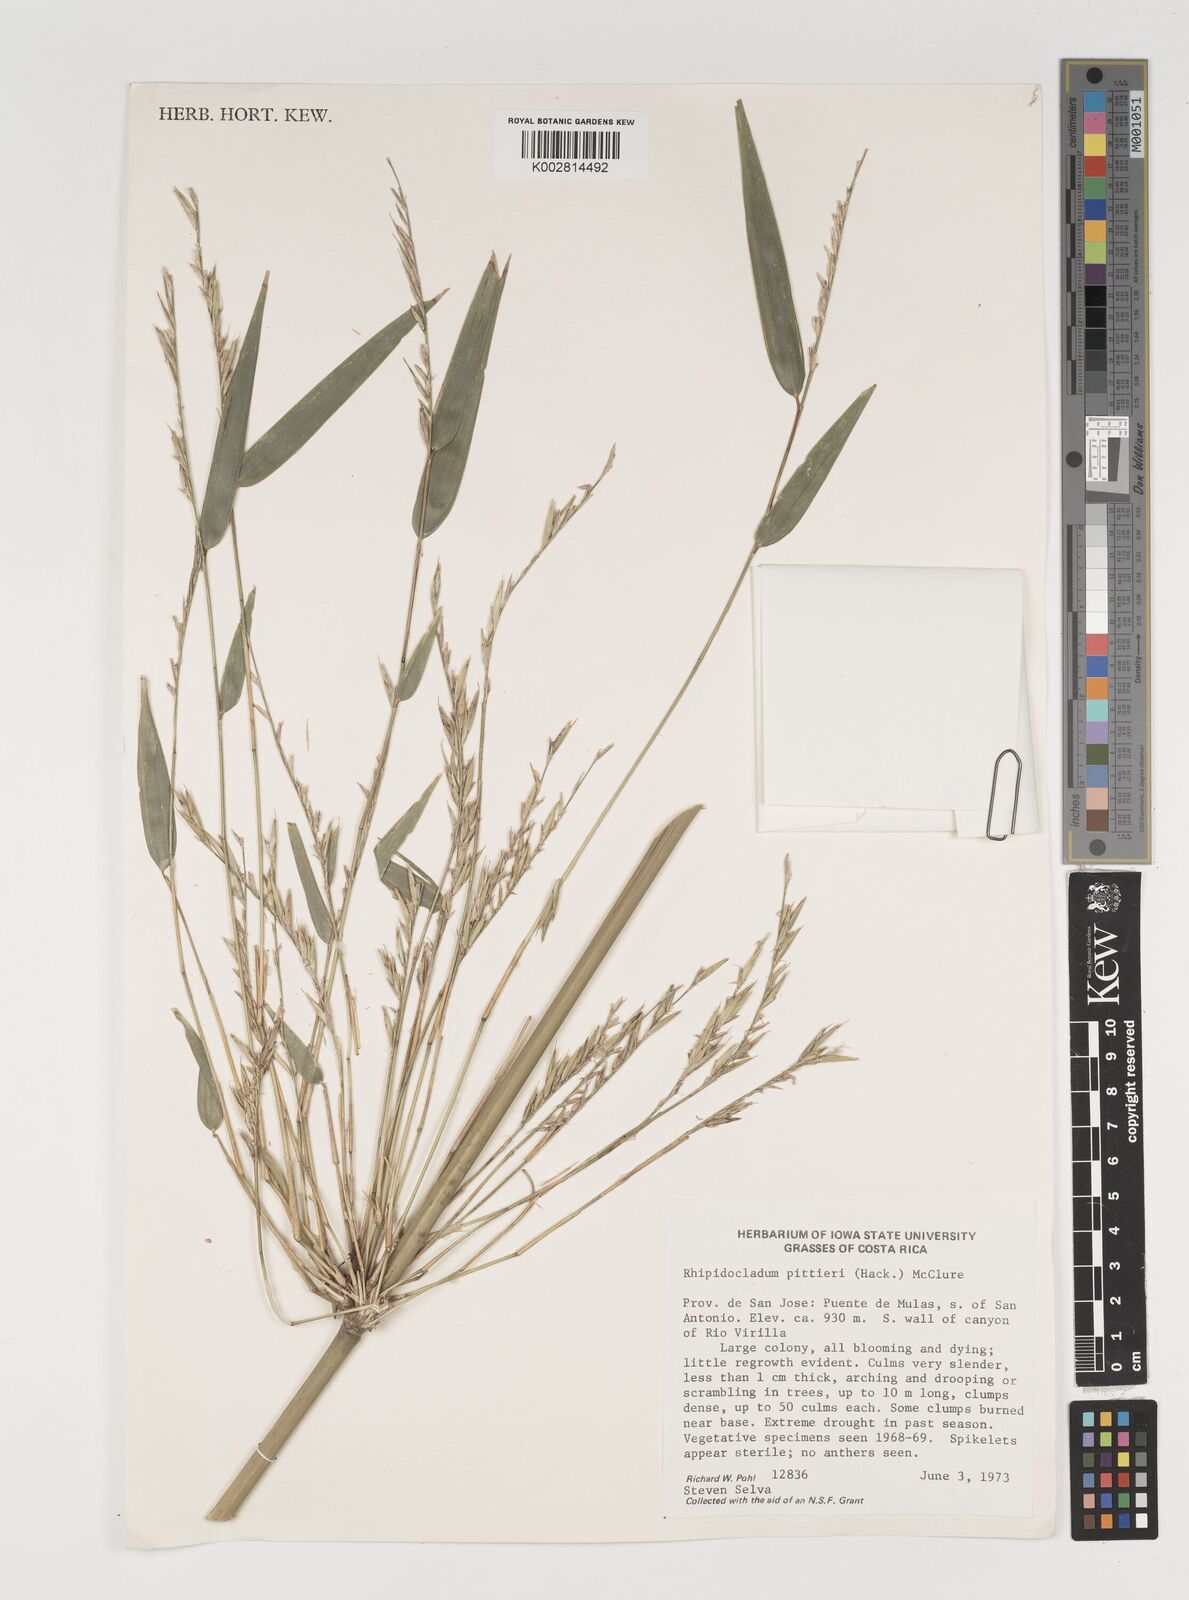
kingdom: Plantae
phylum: Tracheophyta
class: Liliopsida
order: Poales
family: Poaceae
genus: Rhipidocladum
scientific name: Rhipidocladum pittieri
